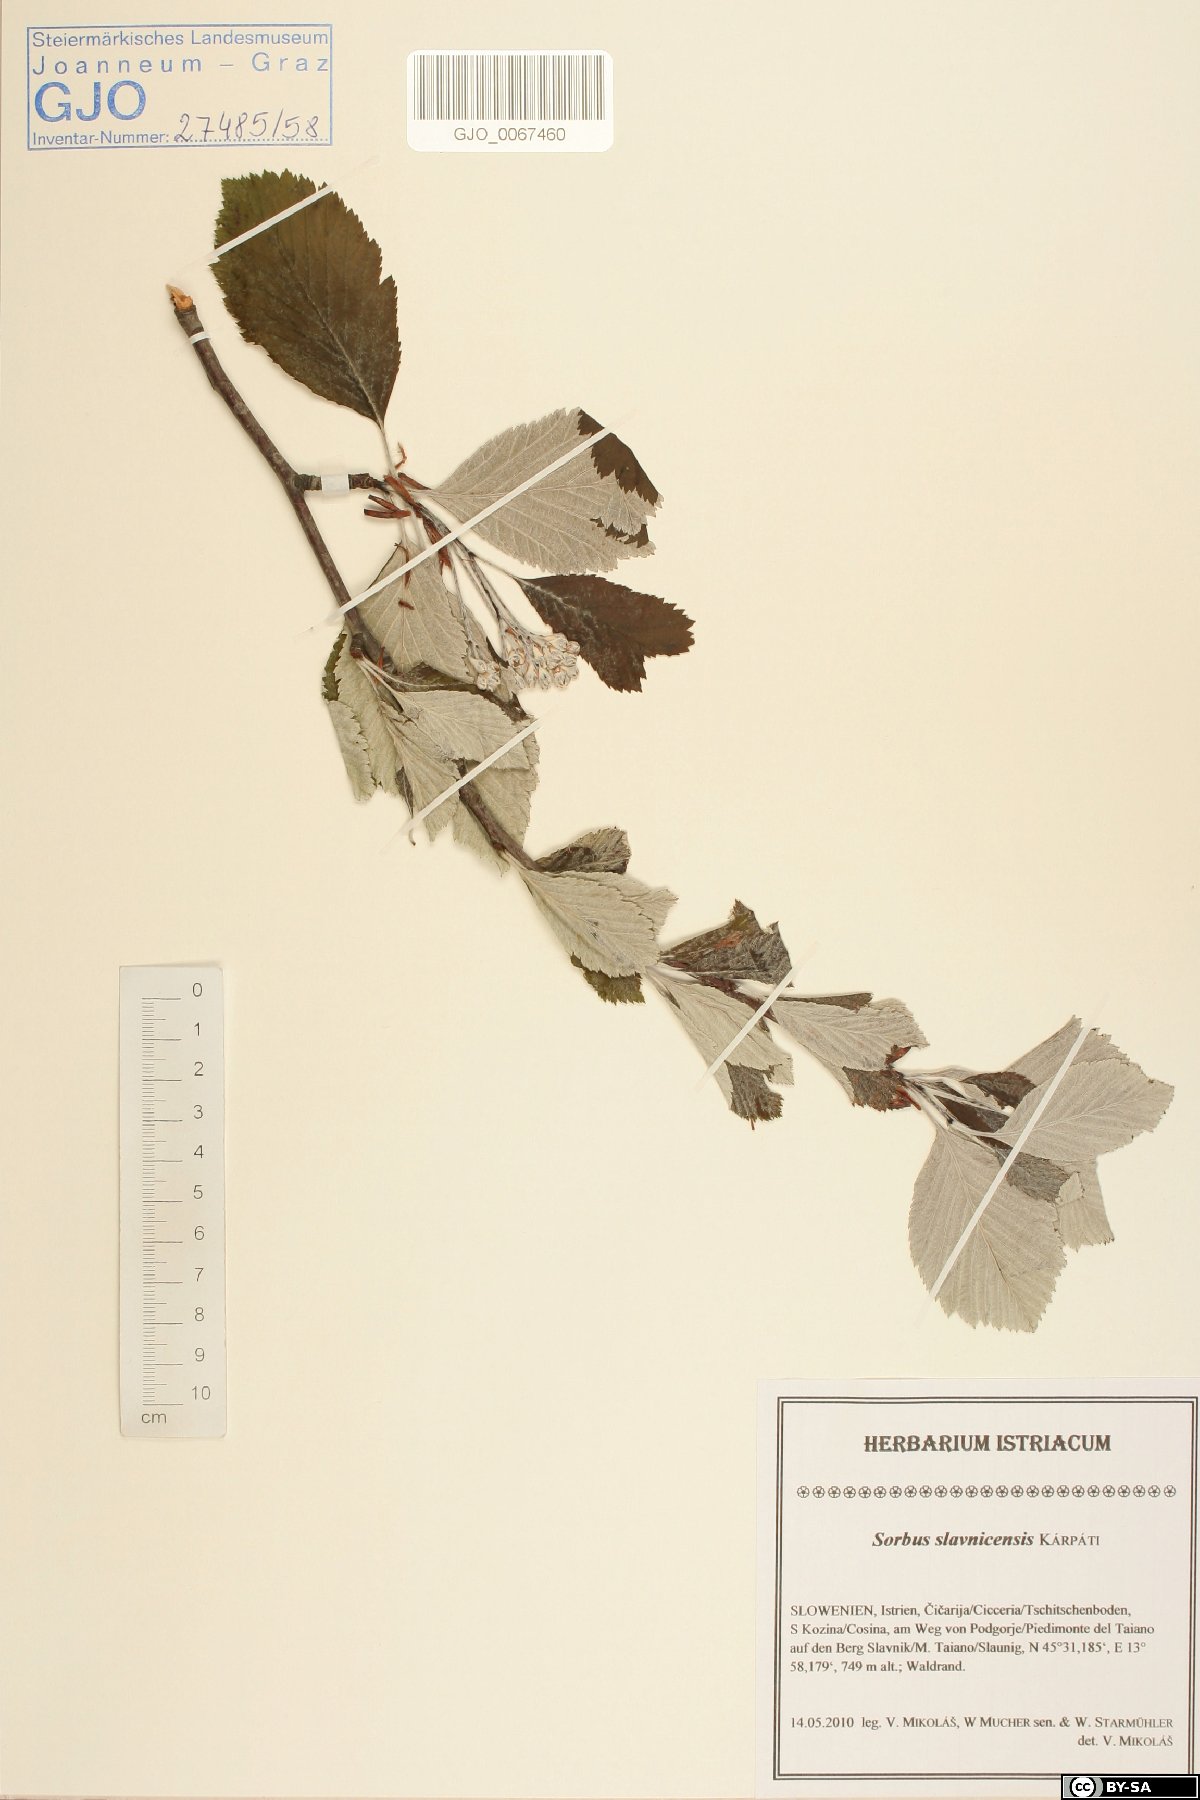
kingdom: Plantae
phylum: Tracheophyta
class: Magnoliopsida
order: Rosales
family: Rosaceae
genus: Karpatiosorbus
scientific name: Karpatiosorbus slavnicensis
